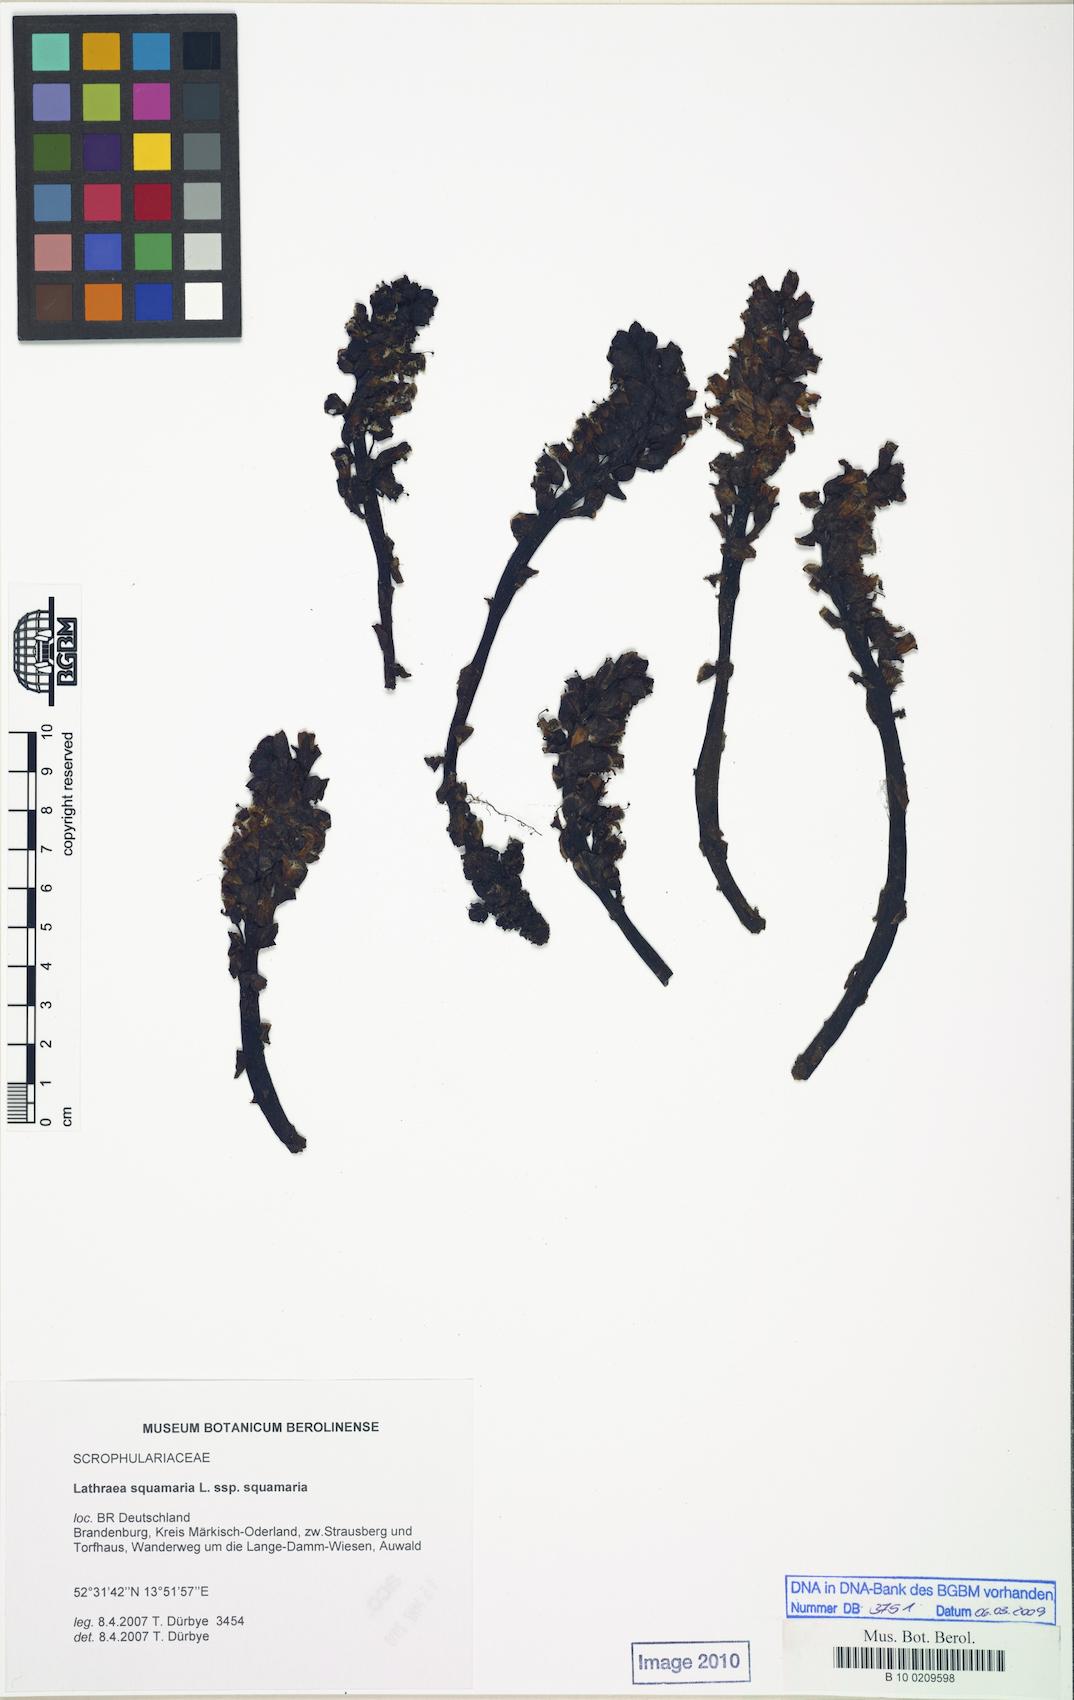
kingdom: Plantae
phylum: Tracheophyta
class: Magnoliopsida
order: Lamiales
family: Orobanchaceae
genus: Lathraea
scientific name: Lathraea squamaria
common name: Toothwort
